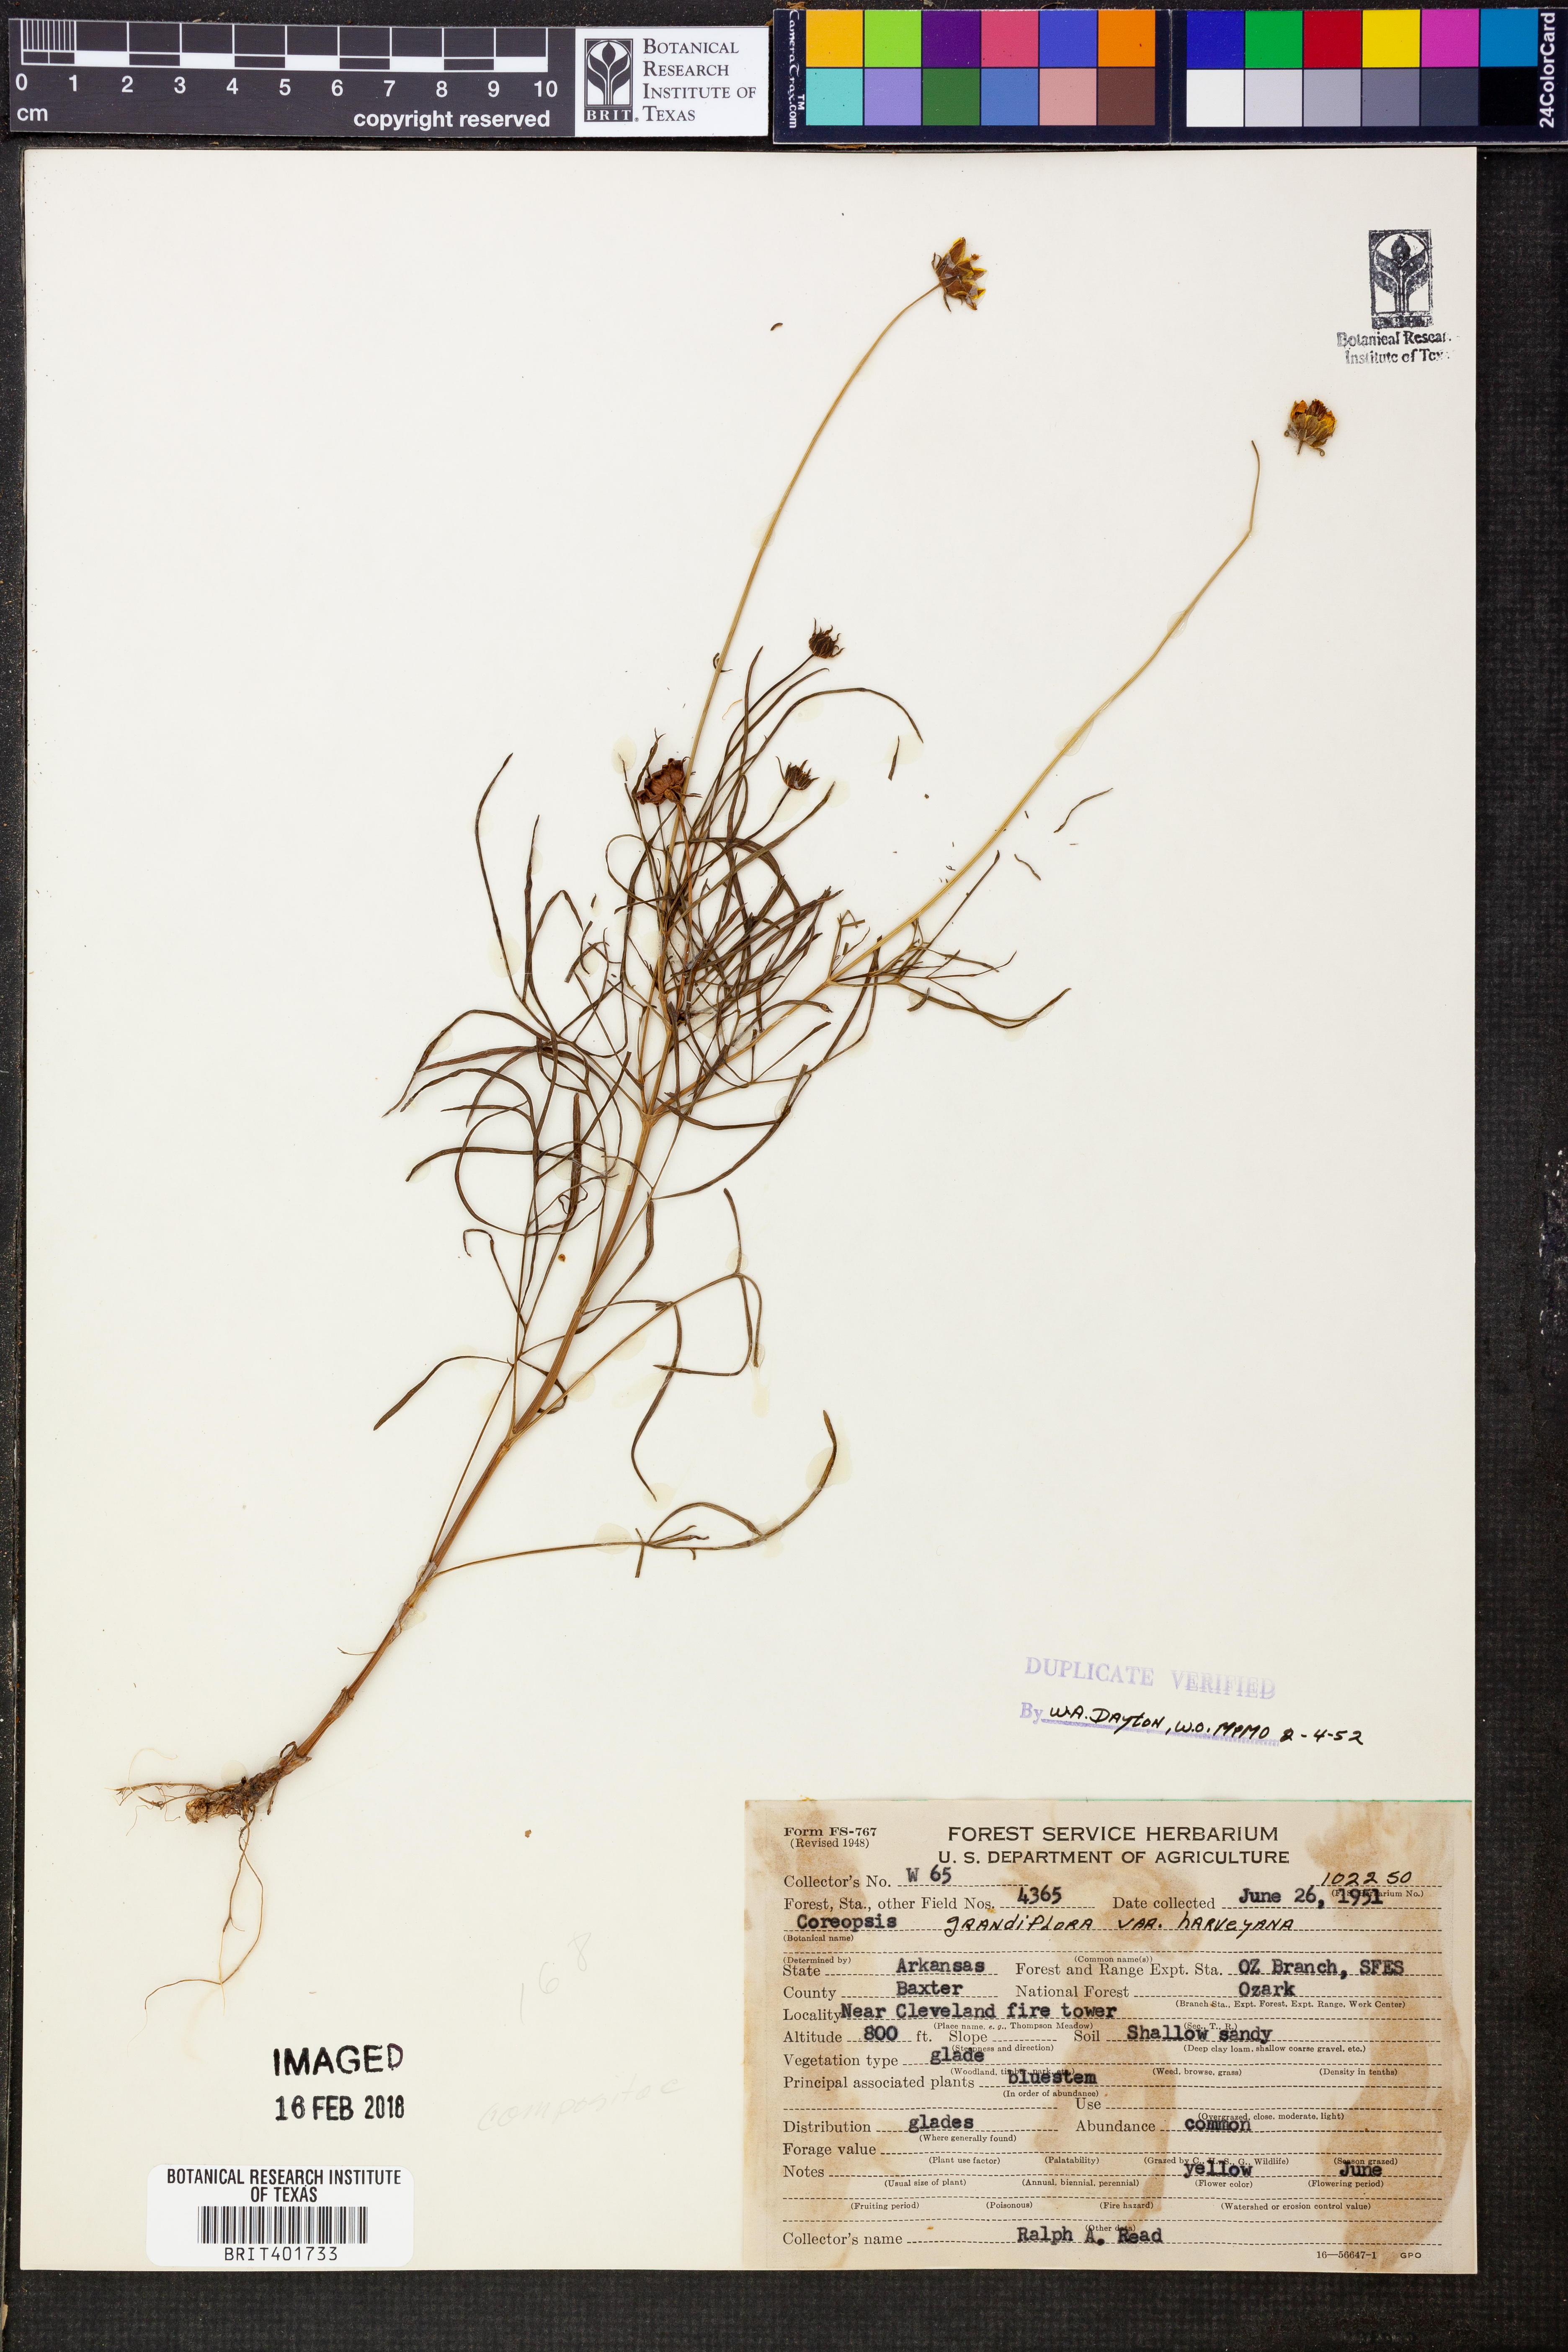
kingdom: Plantae
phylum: Tracheophyta
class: Magnoliopsida
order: Asterales
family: Asteraceae
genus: Coreopsis
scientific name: Coreopsis grandiflora
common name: Large-flowered tickseed
